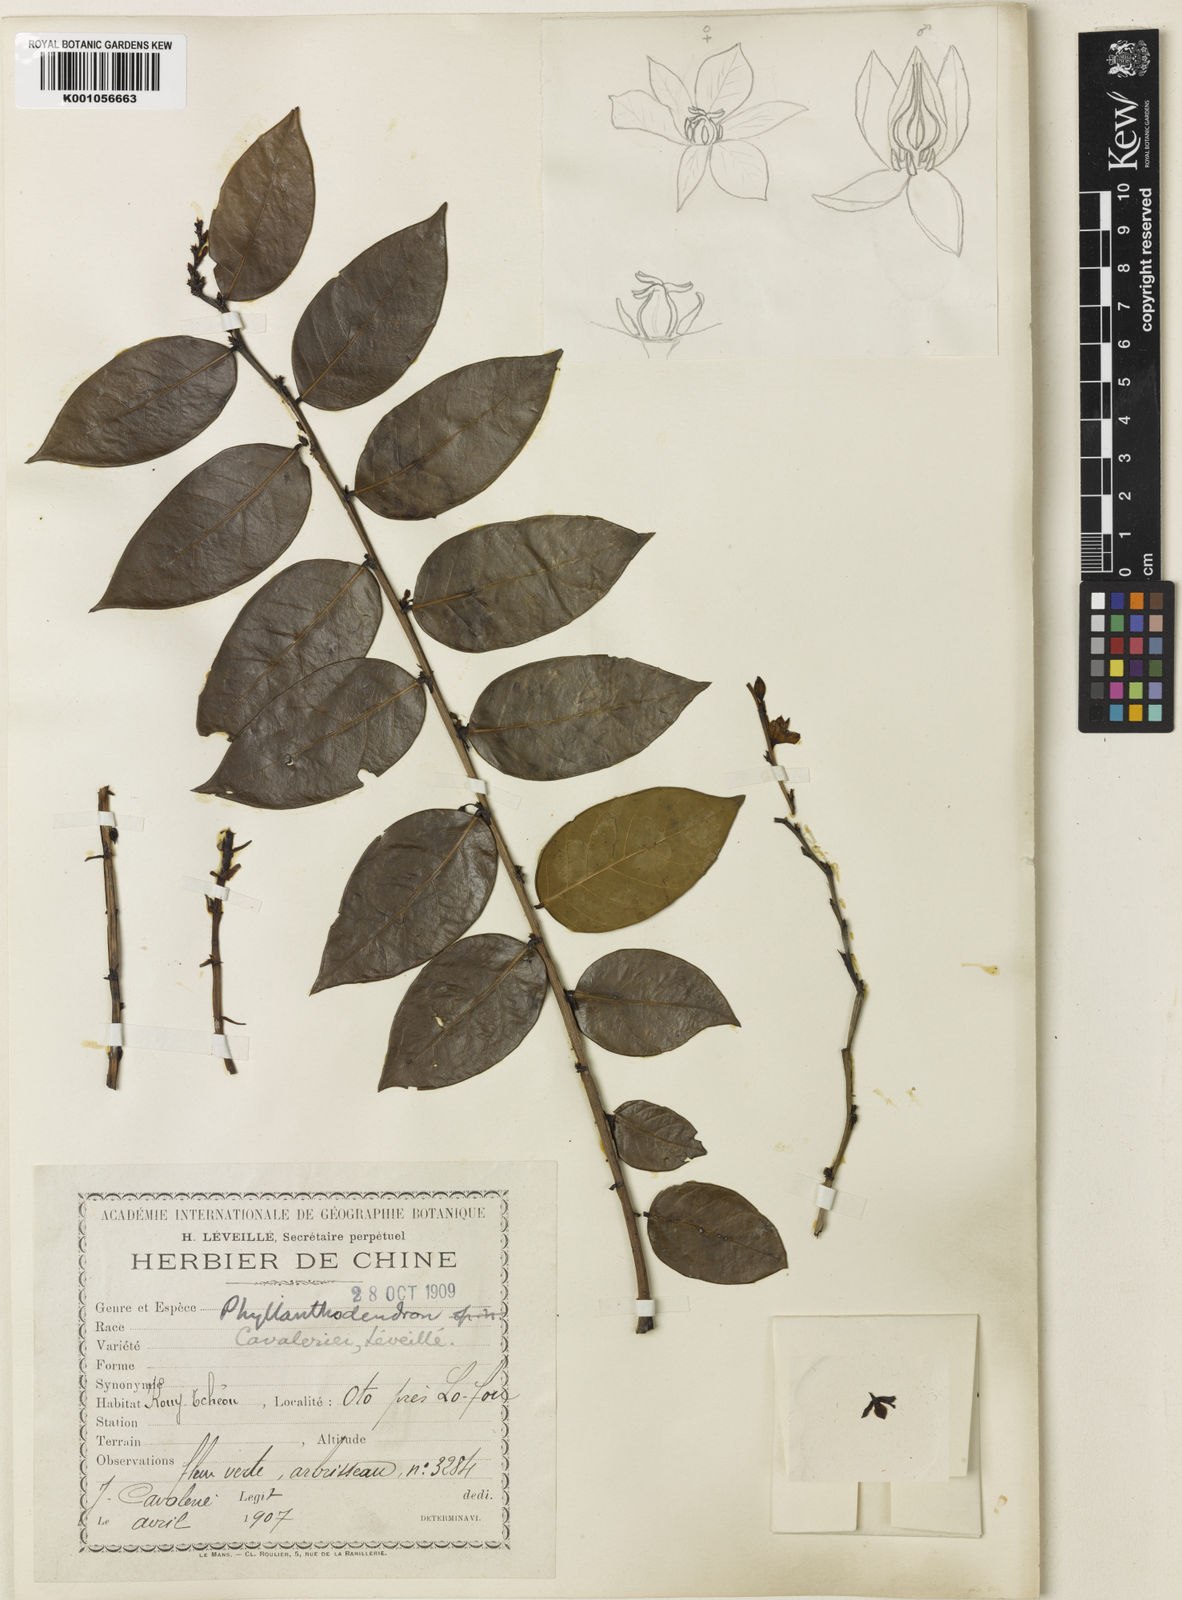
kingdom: Plantae
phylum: Tracheophyta
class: Magnoliopsida
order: Malpighiales
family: Phyllanthaceae
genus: Phyllanthus
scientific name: Phyllanthus
